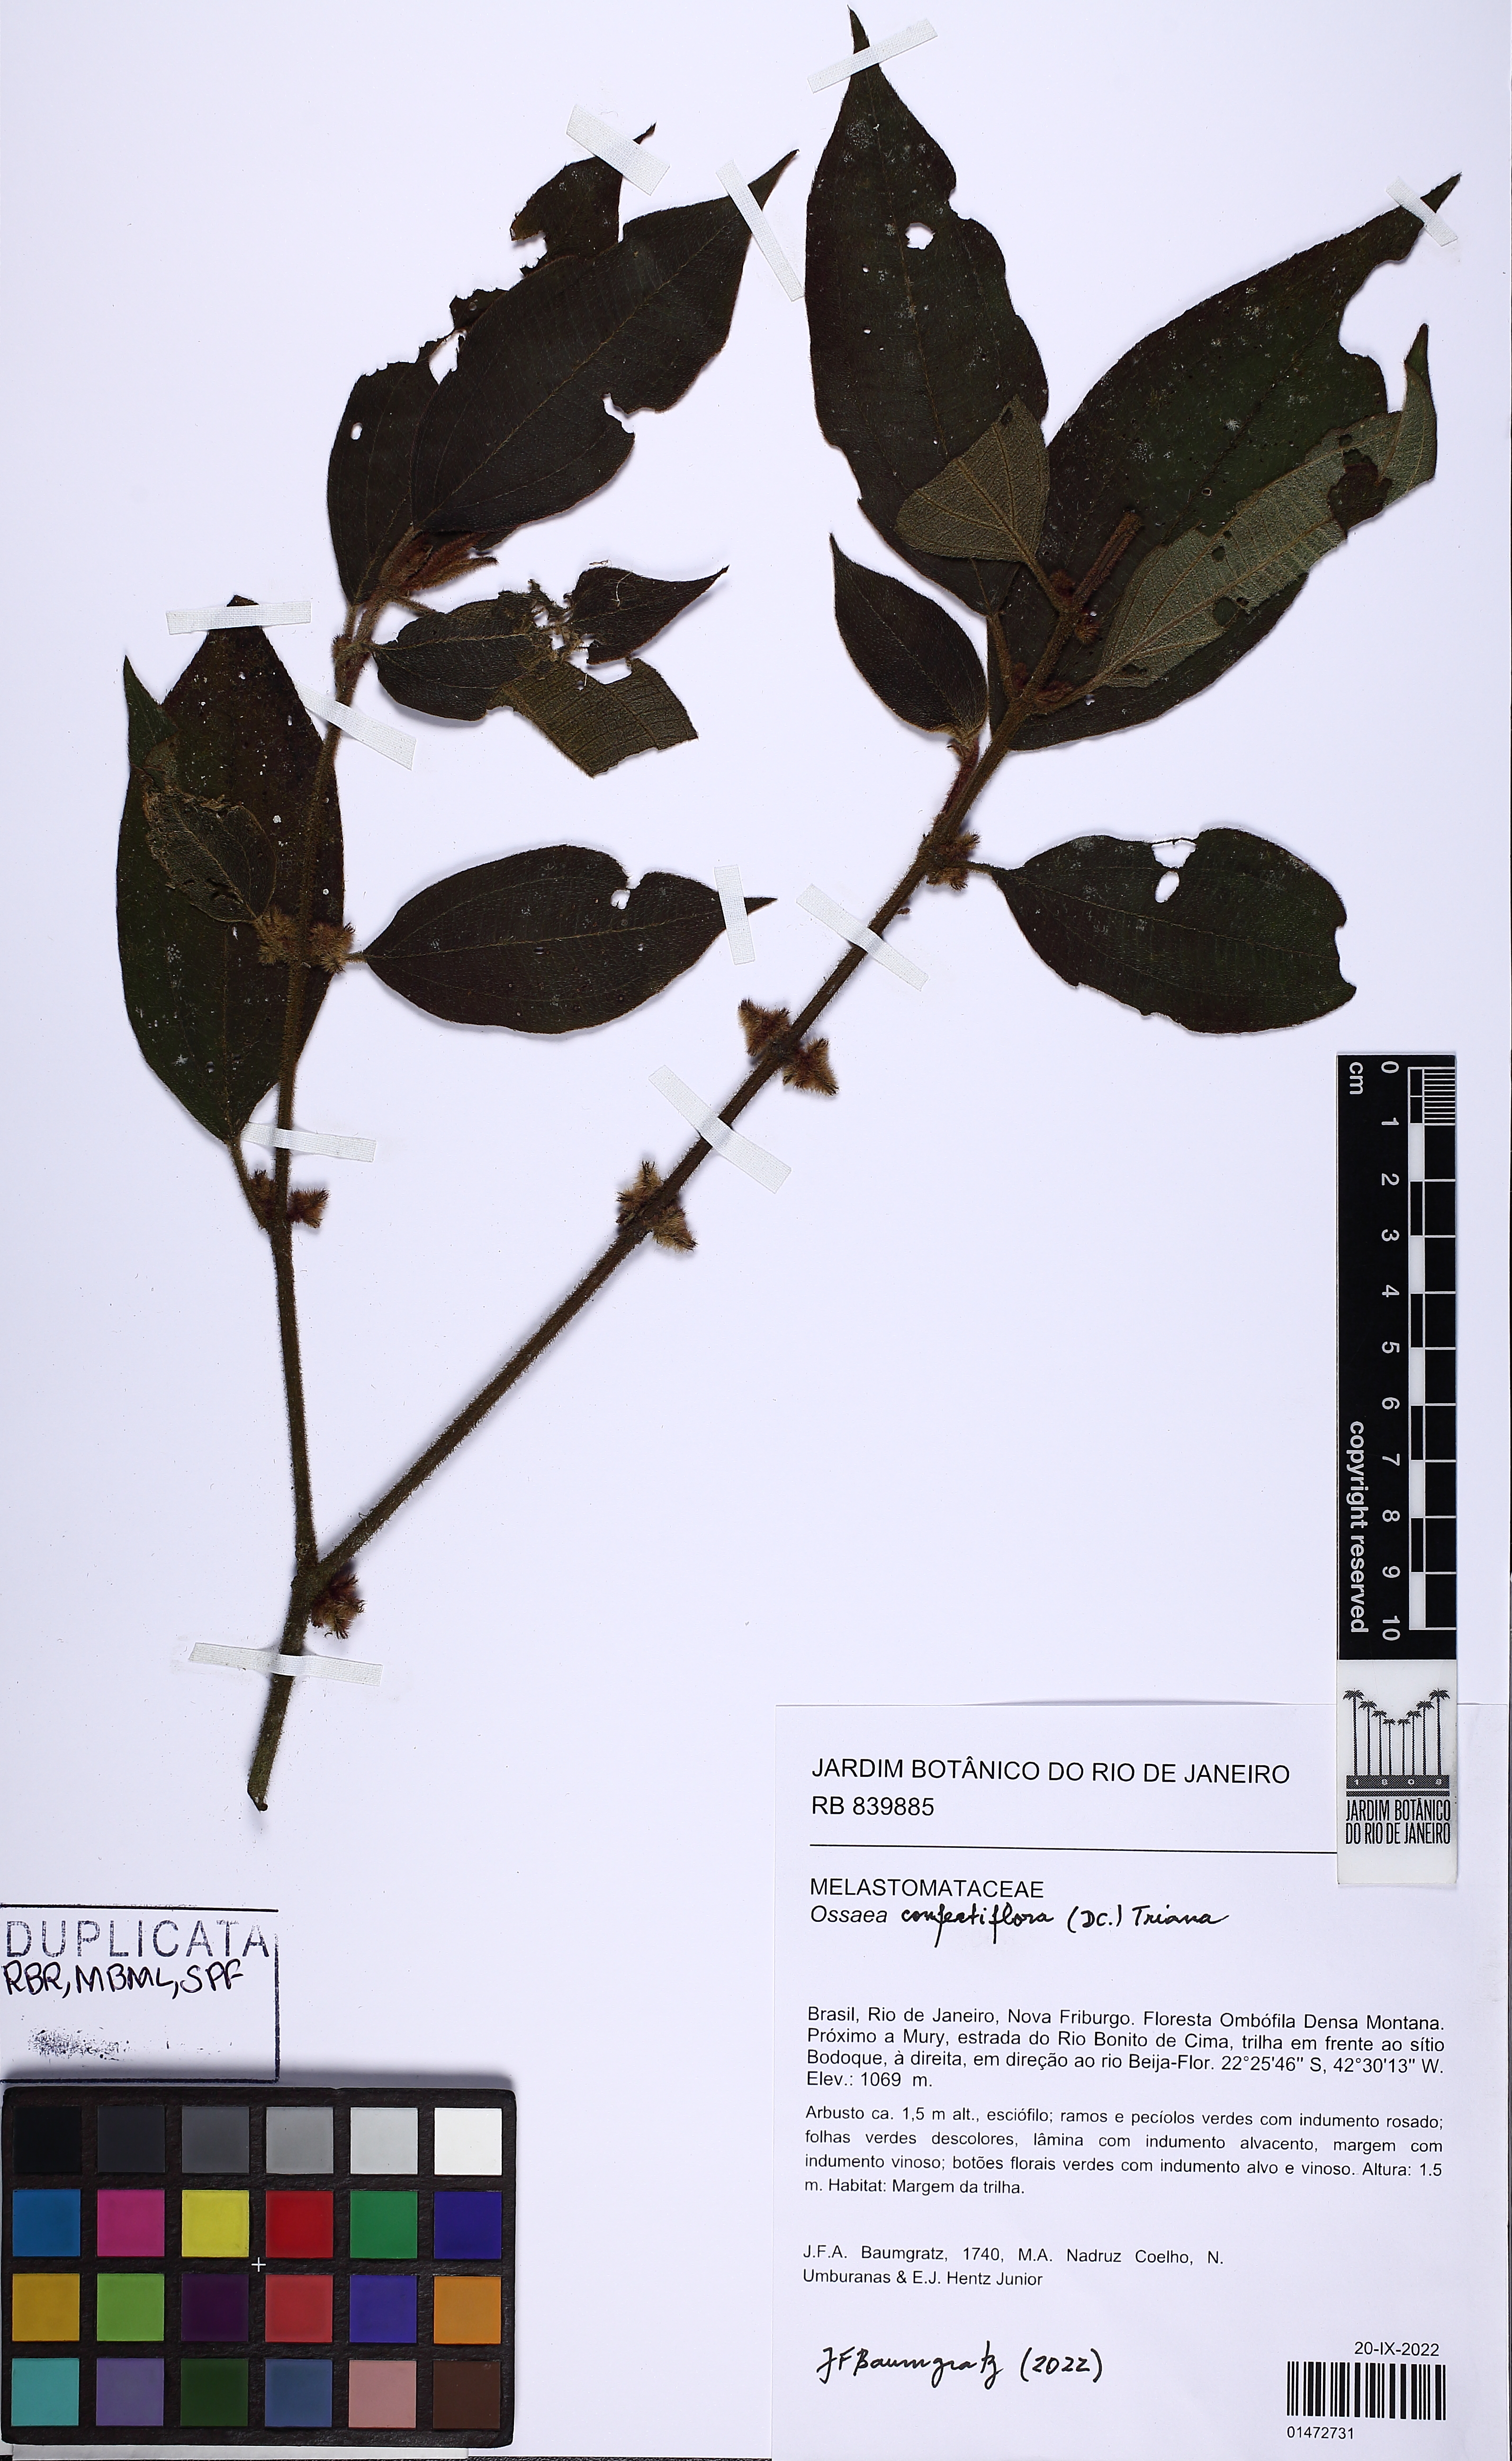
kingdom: Plantae
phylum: Tracheophyta
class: Magnoliopsida
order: Myrtales
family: Melastomataceae
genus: Miconia
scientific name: Miconia rubella
